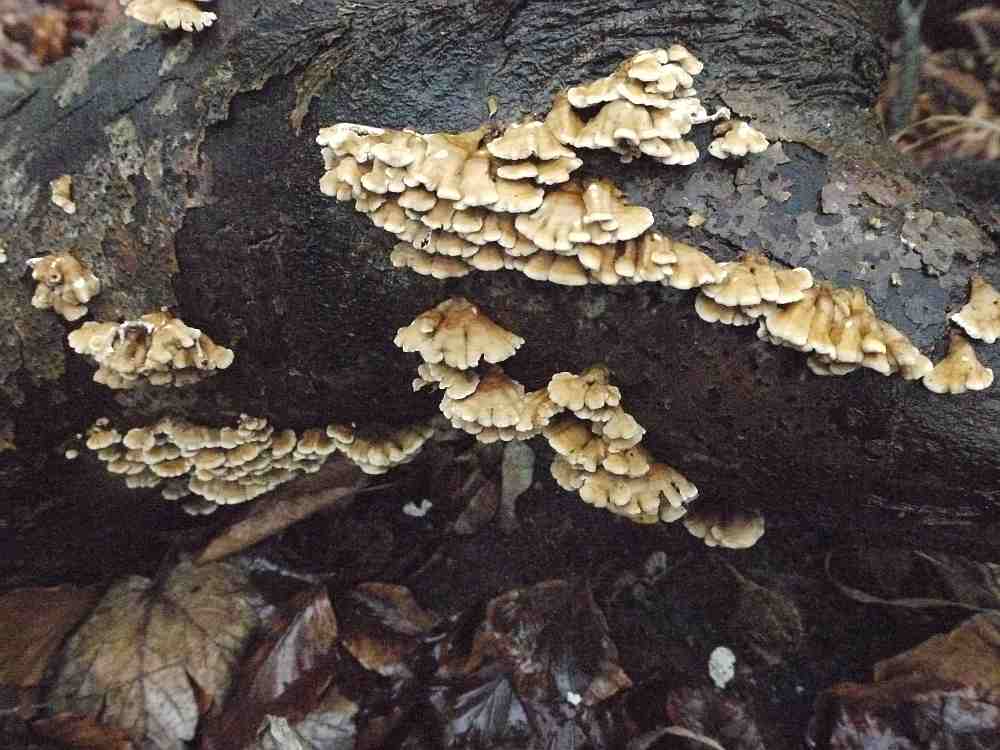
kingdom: Fungi
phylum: Basidiomycota
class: Agaricomycetes
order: Amylocorticiales
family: Amylocorticiaceae
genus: Plicaturopsis
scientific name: Plicaturopsis crispa
